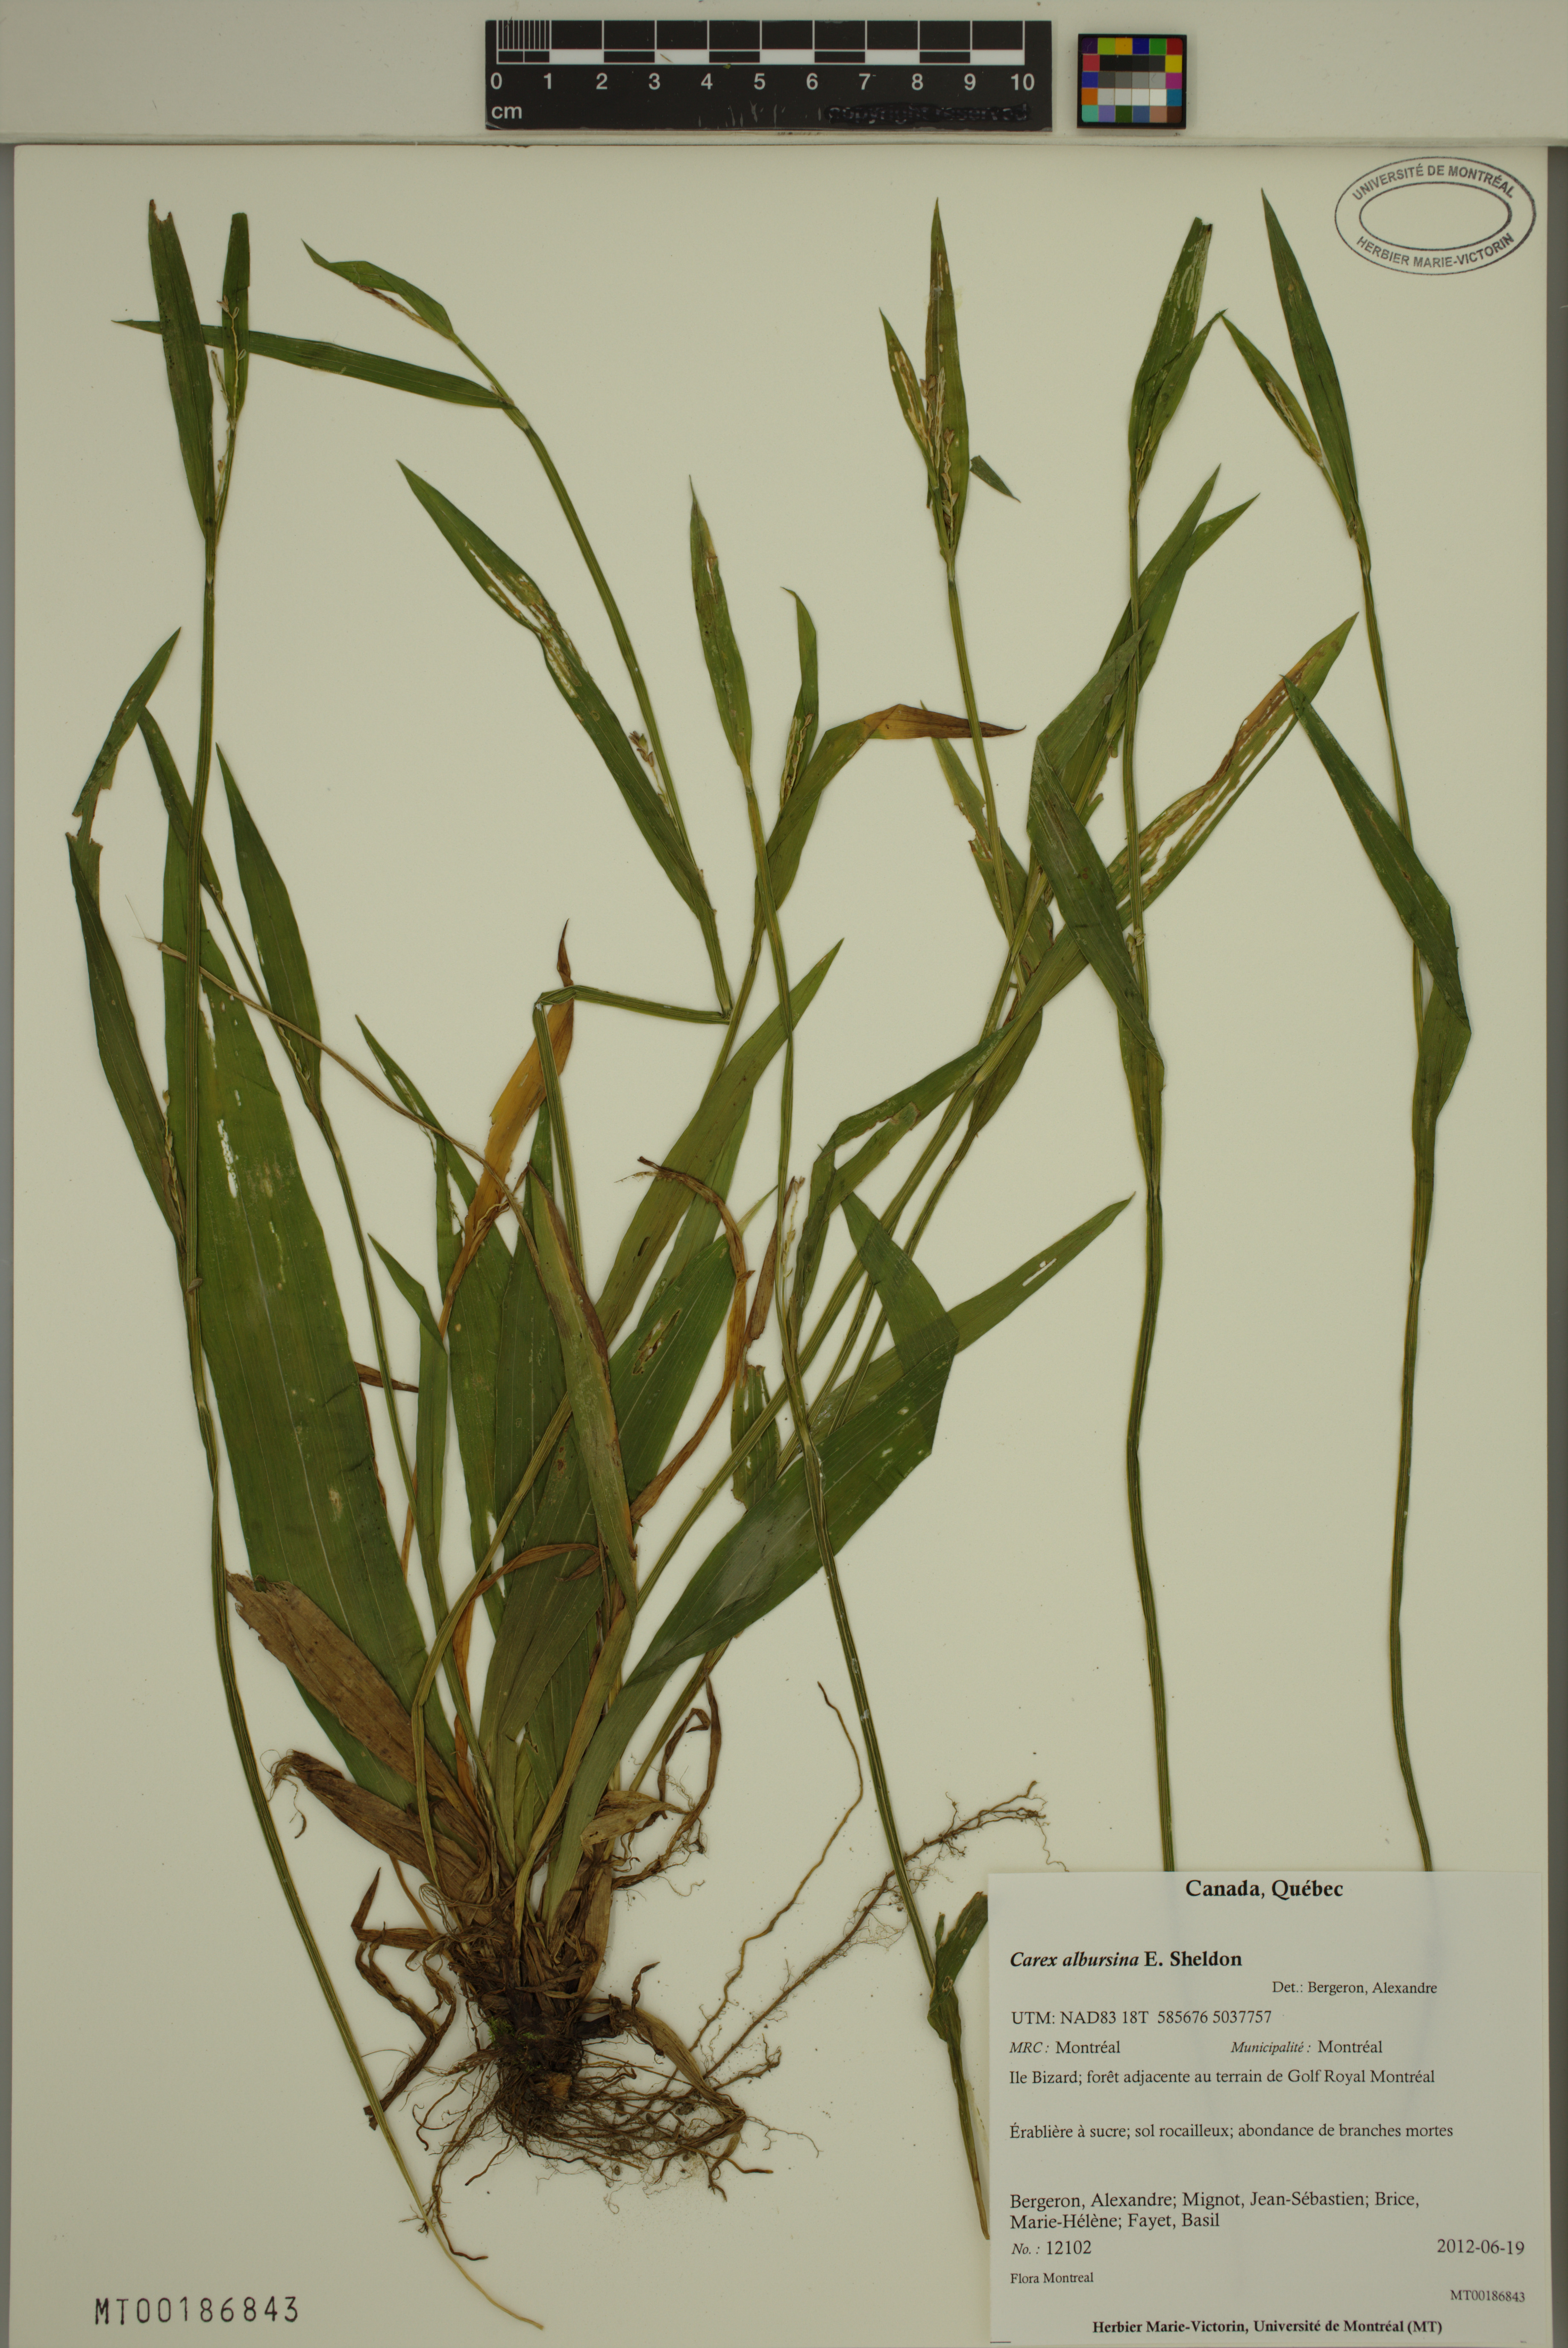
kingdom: Plantae
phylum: Tracheophyta
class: Liliopsida
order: Poales
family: Cyperaceae
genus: Carex
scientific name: Carex albursina
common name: Blunt-scale wood sedge
